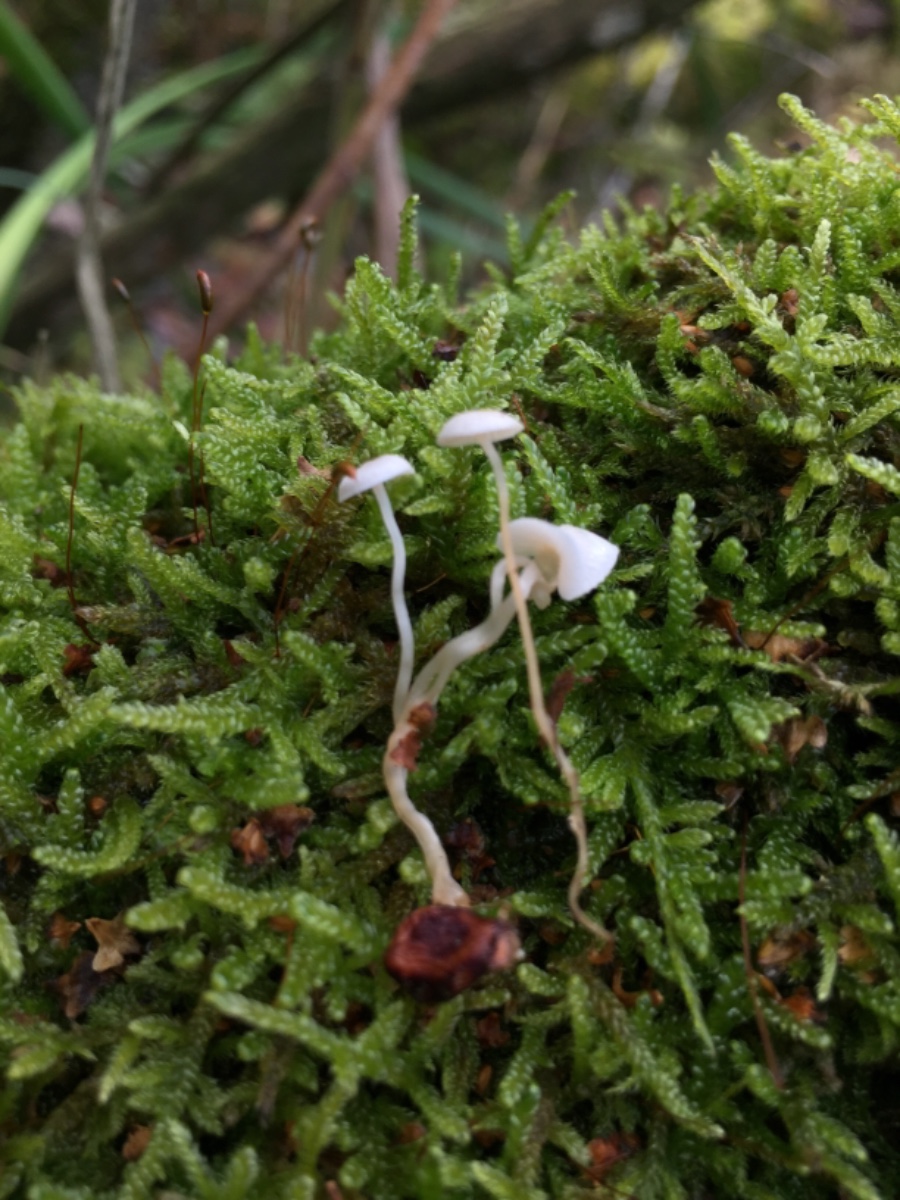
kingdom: Fungi
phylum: Basidiomycota
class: Agaricomycetes
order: Agaricales
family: Tricholomataceae
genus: Collybia
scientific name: Collybia tuberosa
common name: spidsknoldet lighat
